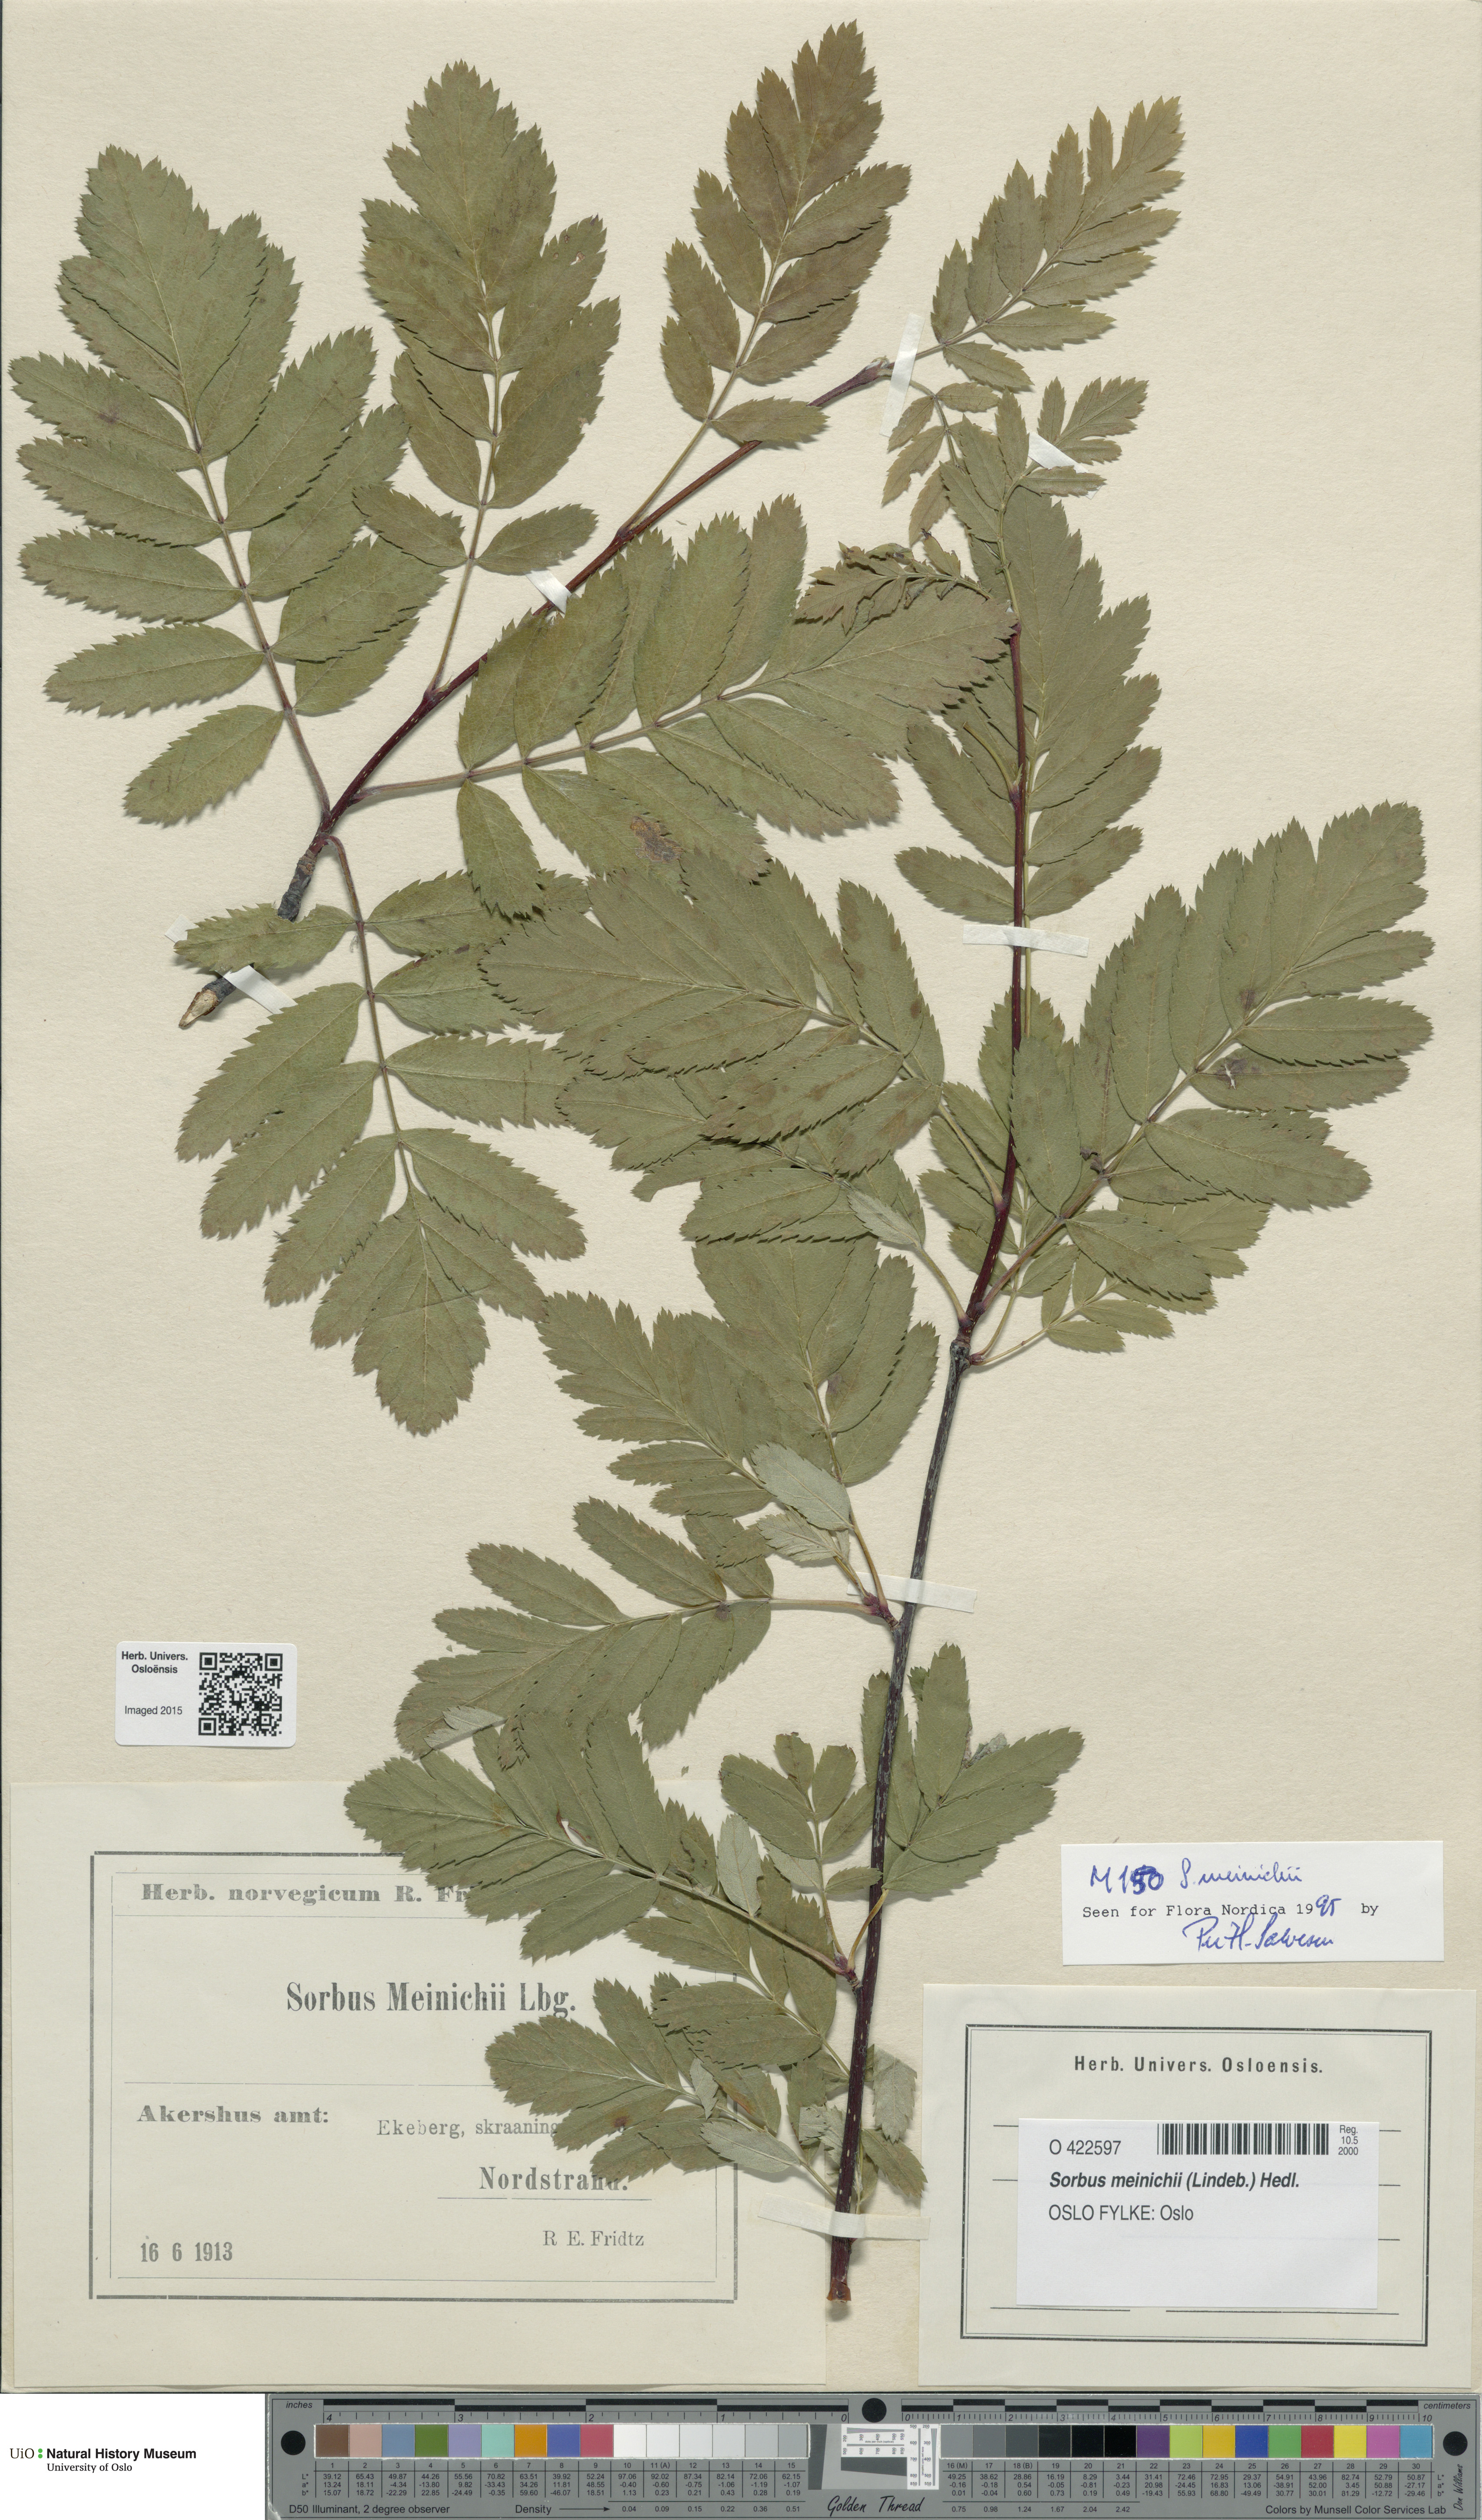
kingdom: Plantae
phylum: Tracheophyta
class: Magnoliopsida
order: Rosales
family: Rosaceae
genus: Hedlundia
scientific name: Hedlundia meinichii
